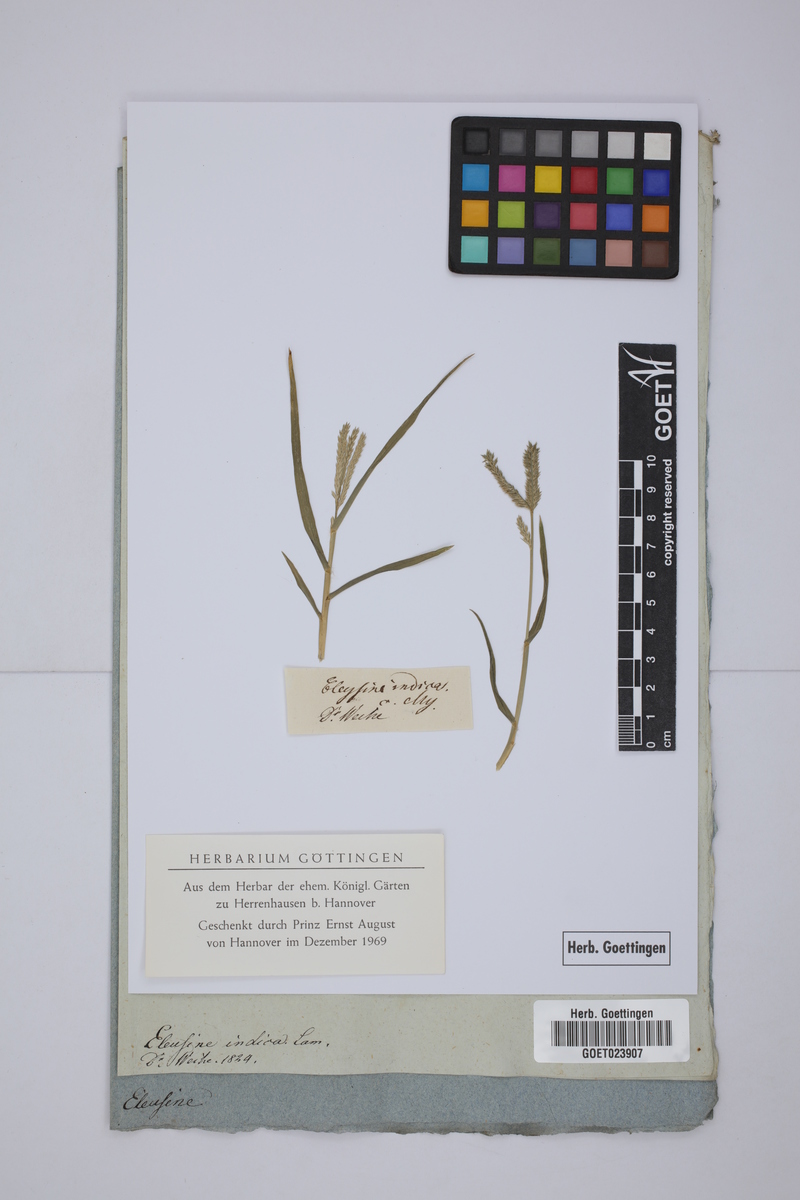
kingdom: Plantae
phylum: Tracheophyta
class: Liliopsida
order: Poales
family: Poaceae
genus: Eleusine
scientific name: Eleusine indica
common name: Yard-grass
